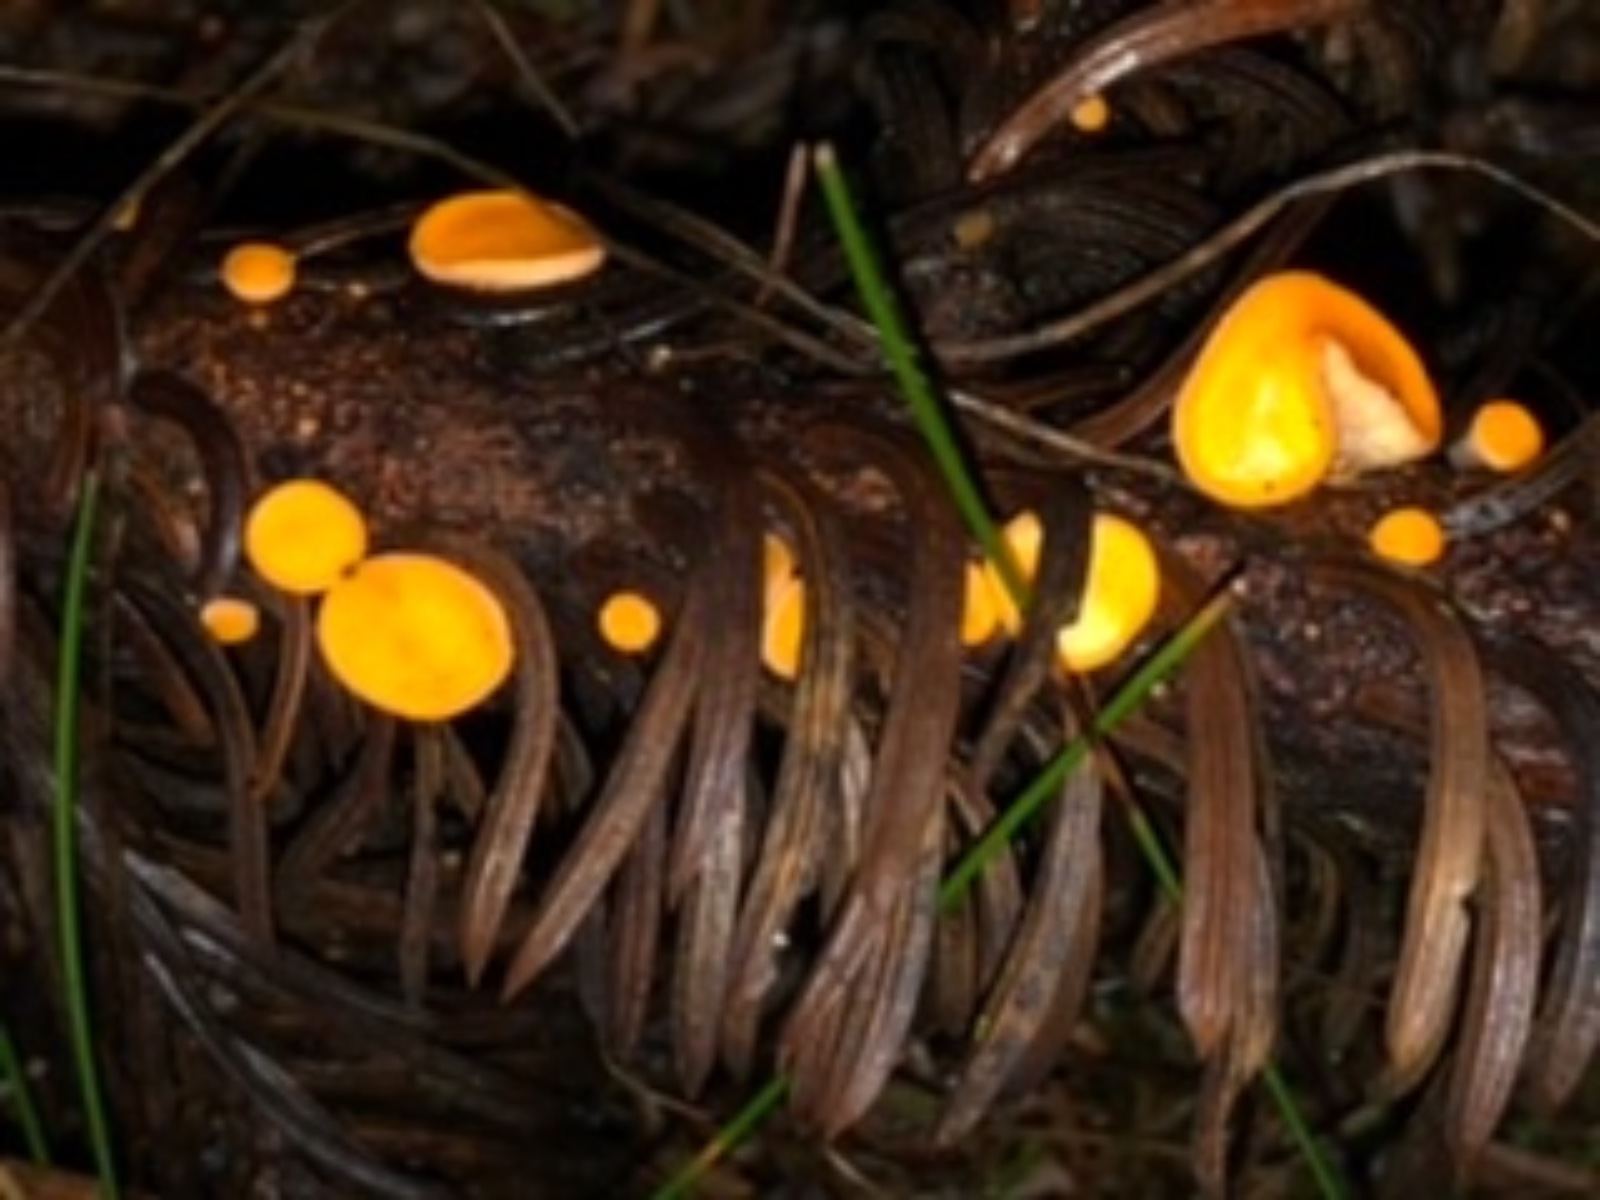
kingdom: Fungi
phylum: Ascomycota
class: Pezizomycetes
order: Pezizales
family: Sarcoscyphaceae
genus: Pithya
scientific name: Pithya vulgaris
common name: stor dukatbæger
